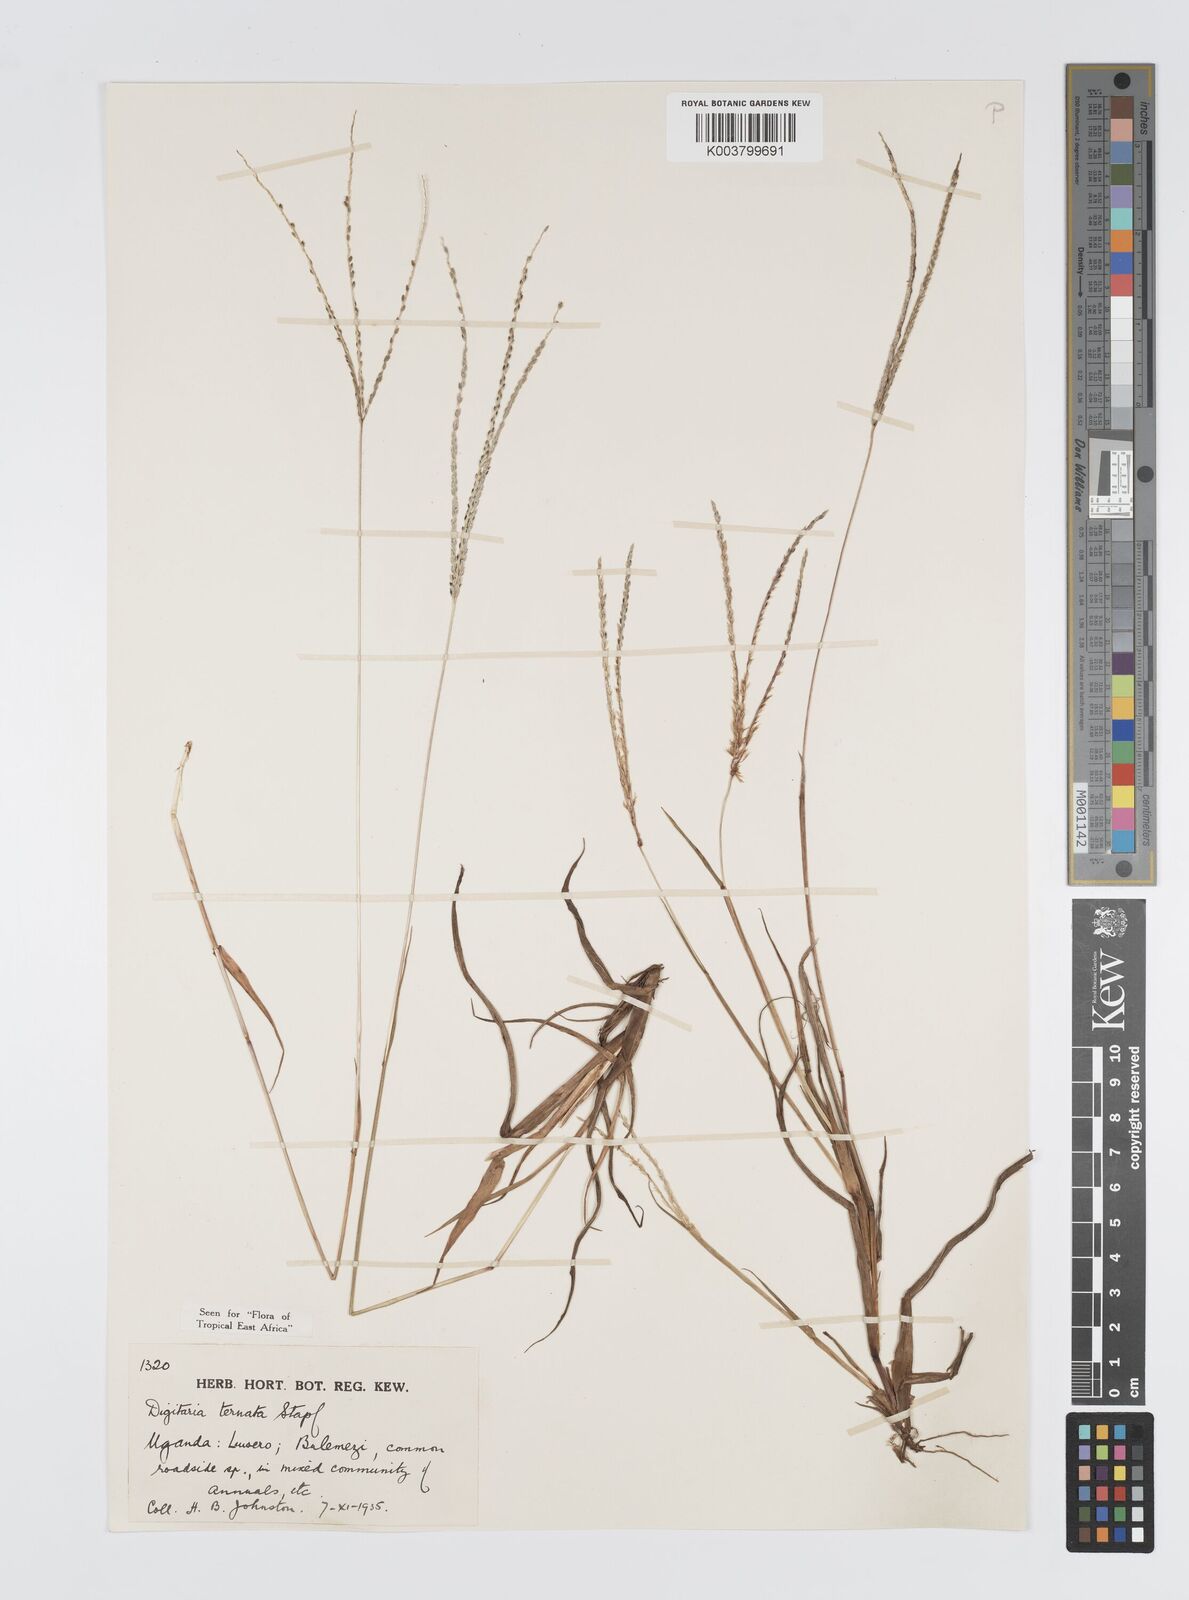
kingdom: Plantae
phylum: Tracheophyta
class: Liliopsida
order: Poales
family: Poaceae
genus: Digitaria
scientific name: Digitaria ternata
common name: Blackseed crabgrass
